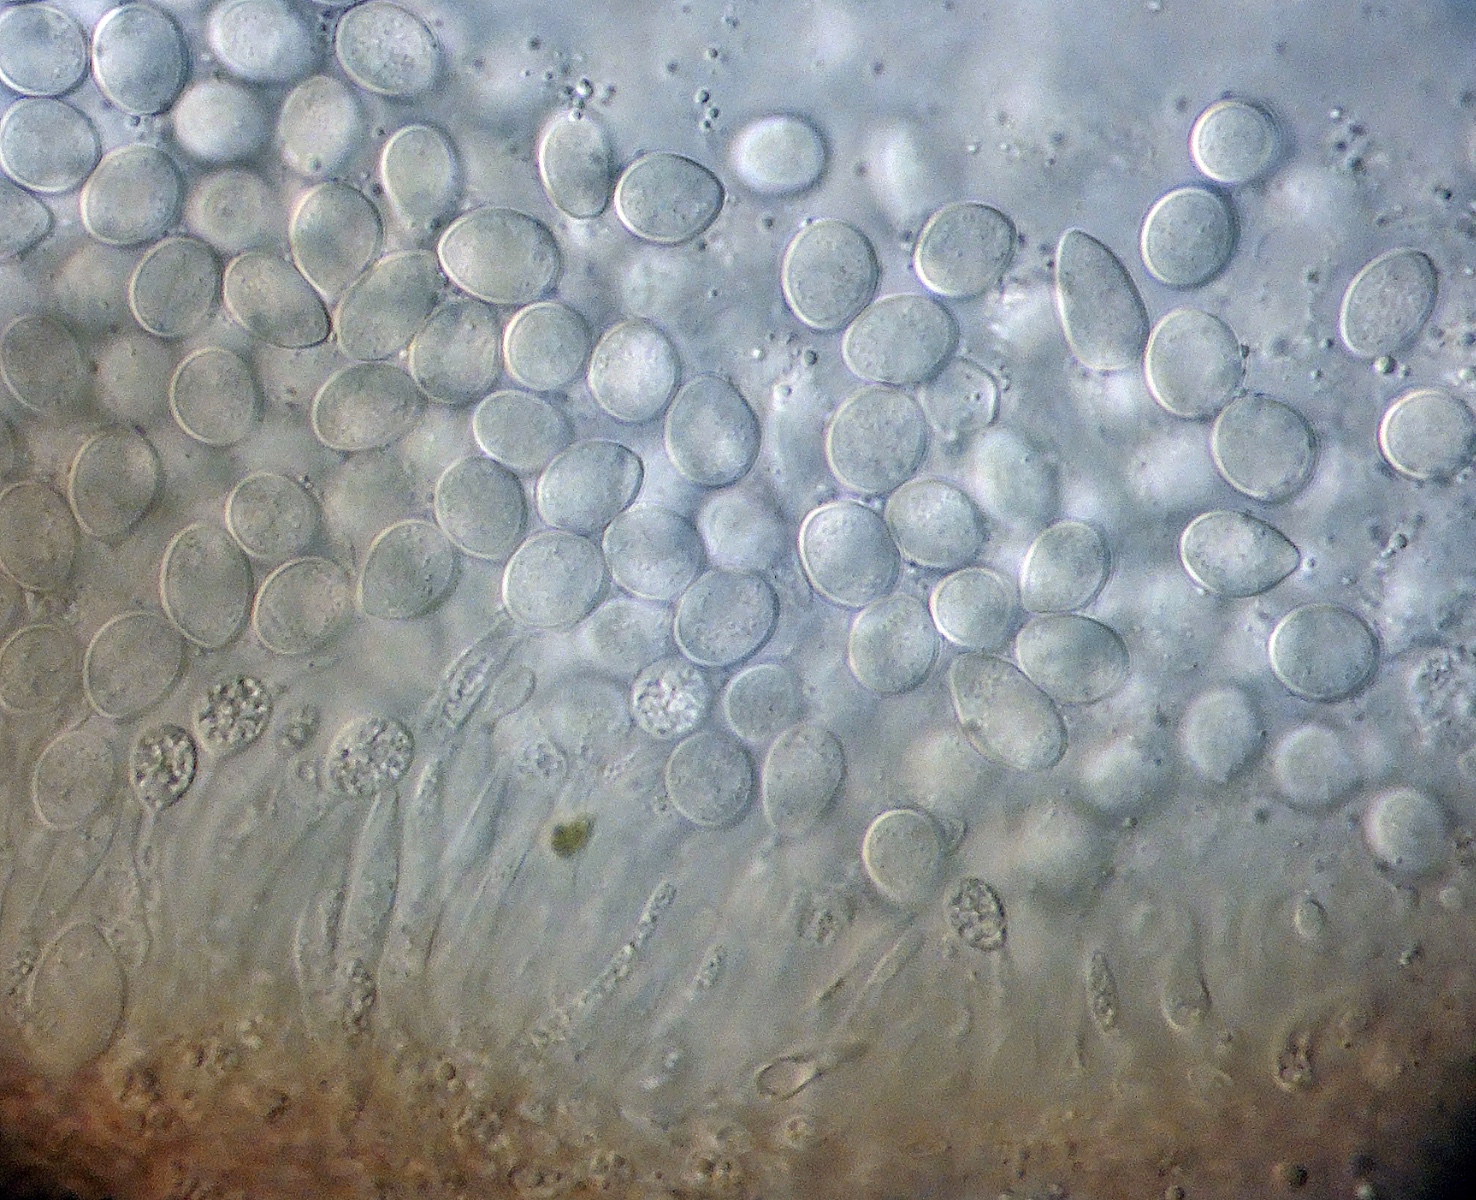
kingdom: Fungi
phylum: Ascomycota
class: Sordariomycetes
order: Diaporthales
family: Gnomoniaceae
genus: Plagiostoma
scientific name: Plagiostoma populinum
